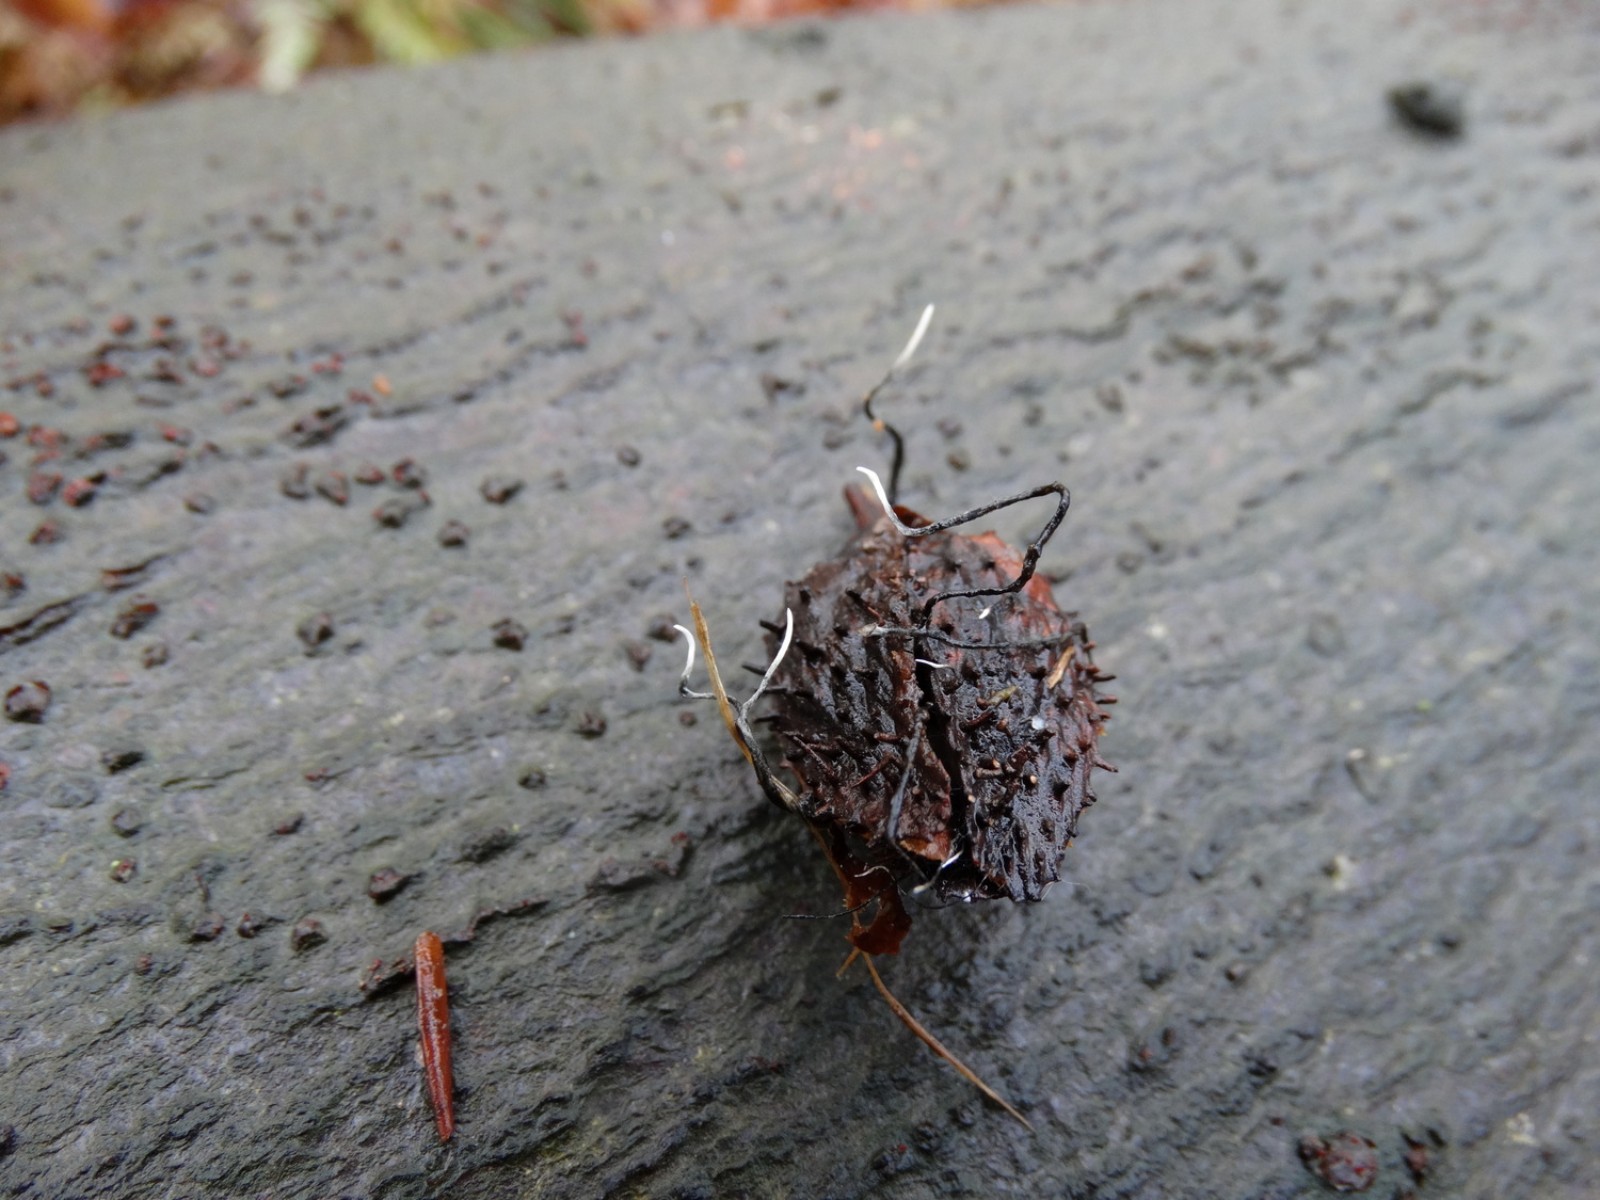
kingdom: Fungi
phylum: Ascomycota
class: Sordariomycetes
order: Xylariales
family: Xylariaceae
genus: Xylaria
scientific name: Xylaria carpophila
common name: bogskål-stødsvamp
